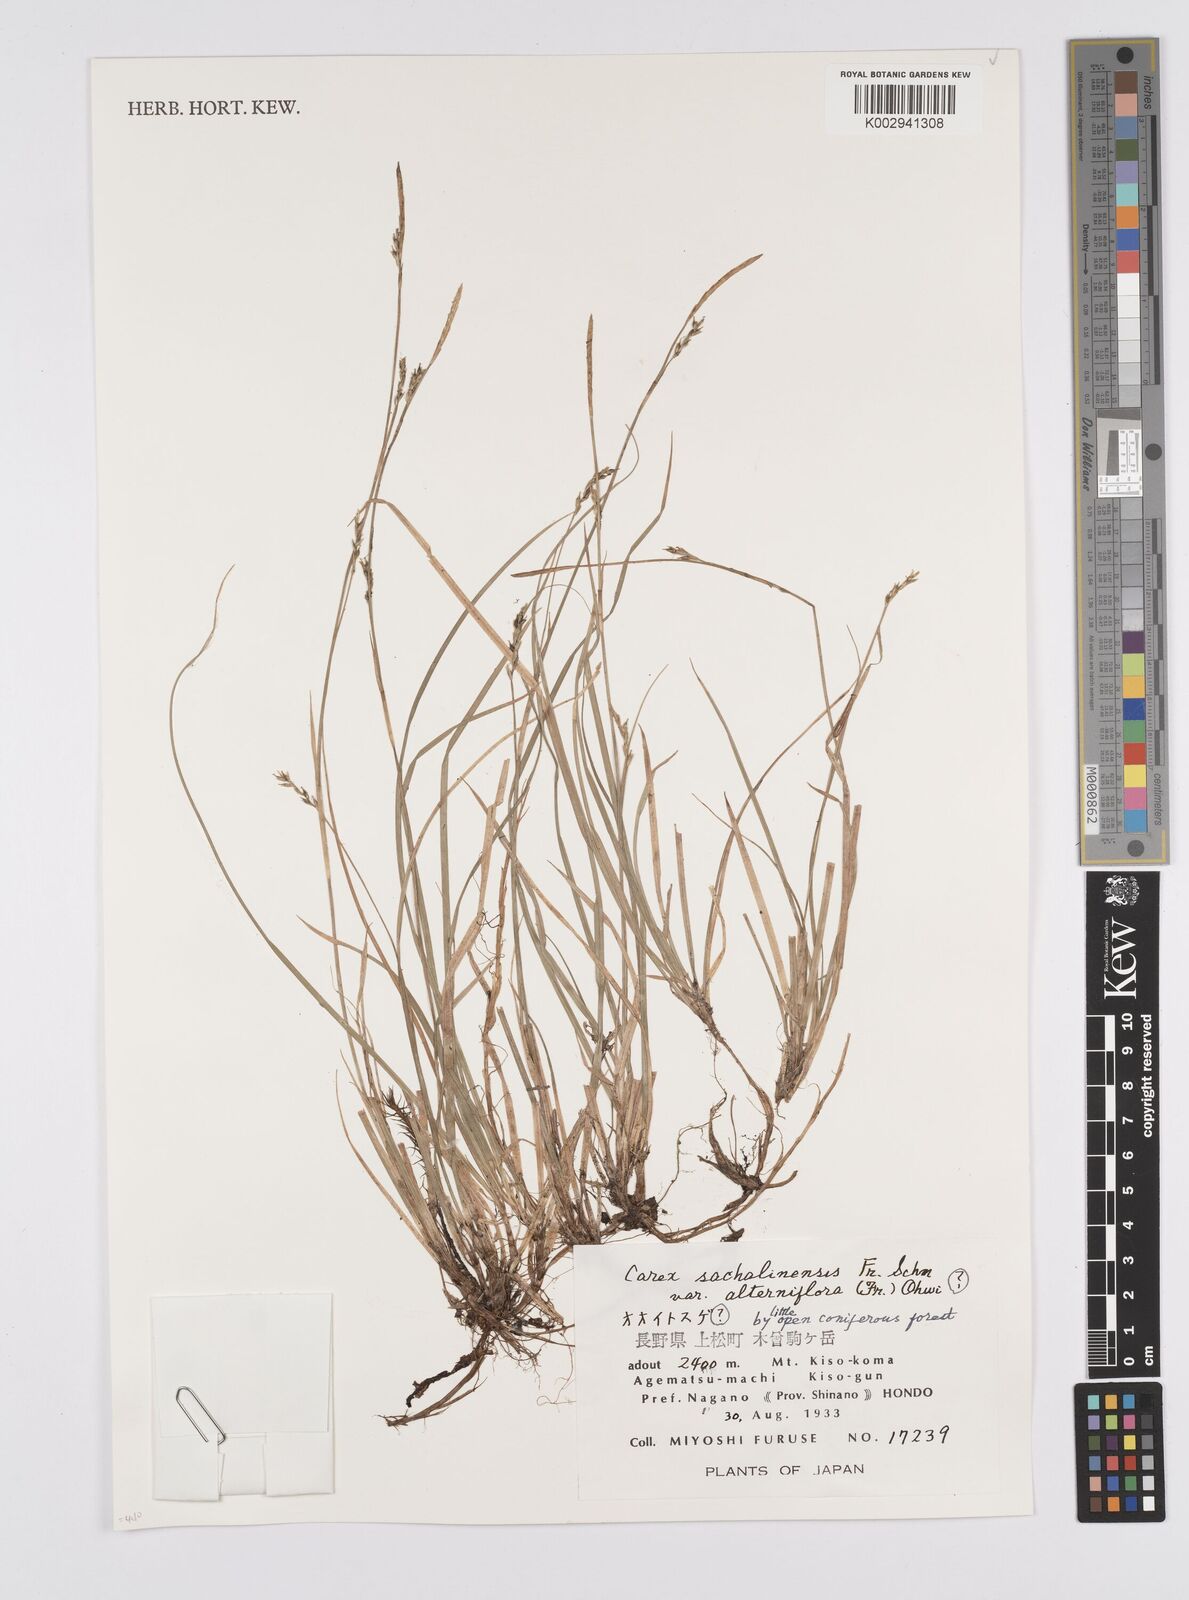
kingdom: Plantae
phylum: Tracheophyta
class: Liliopsida
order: Poales
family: Cyperaceae
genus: Carex
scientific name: Carex pisiformis
